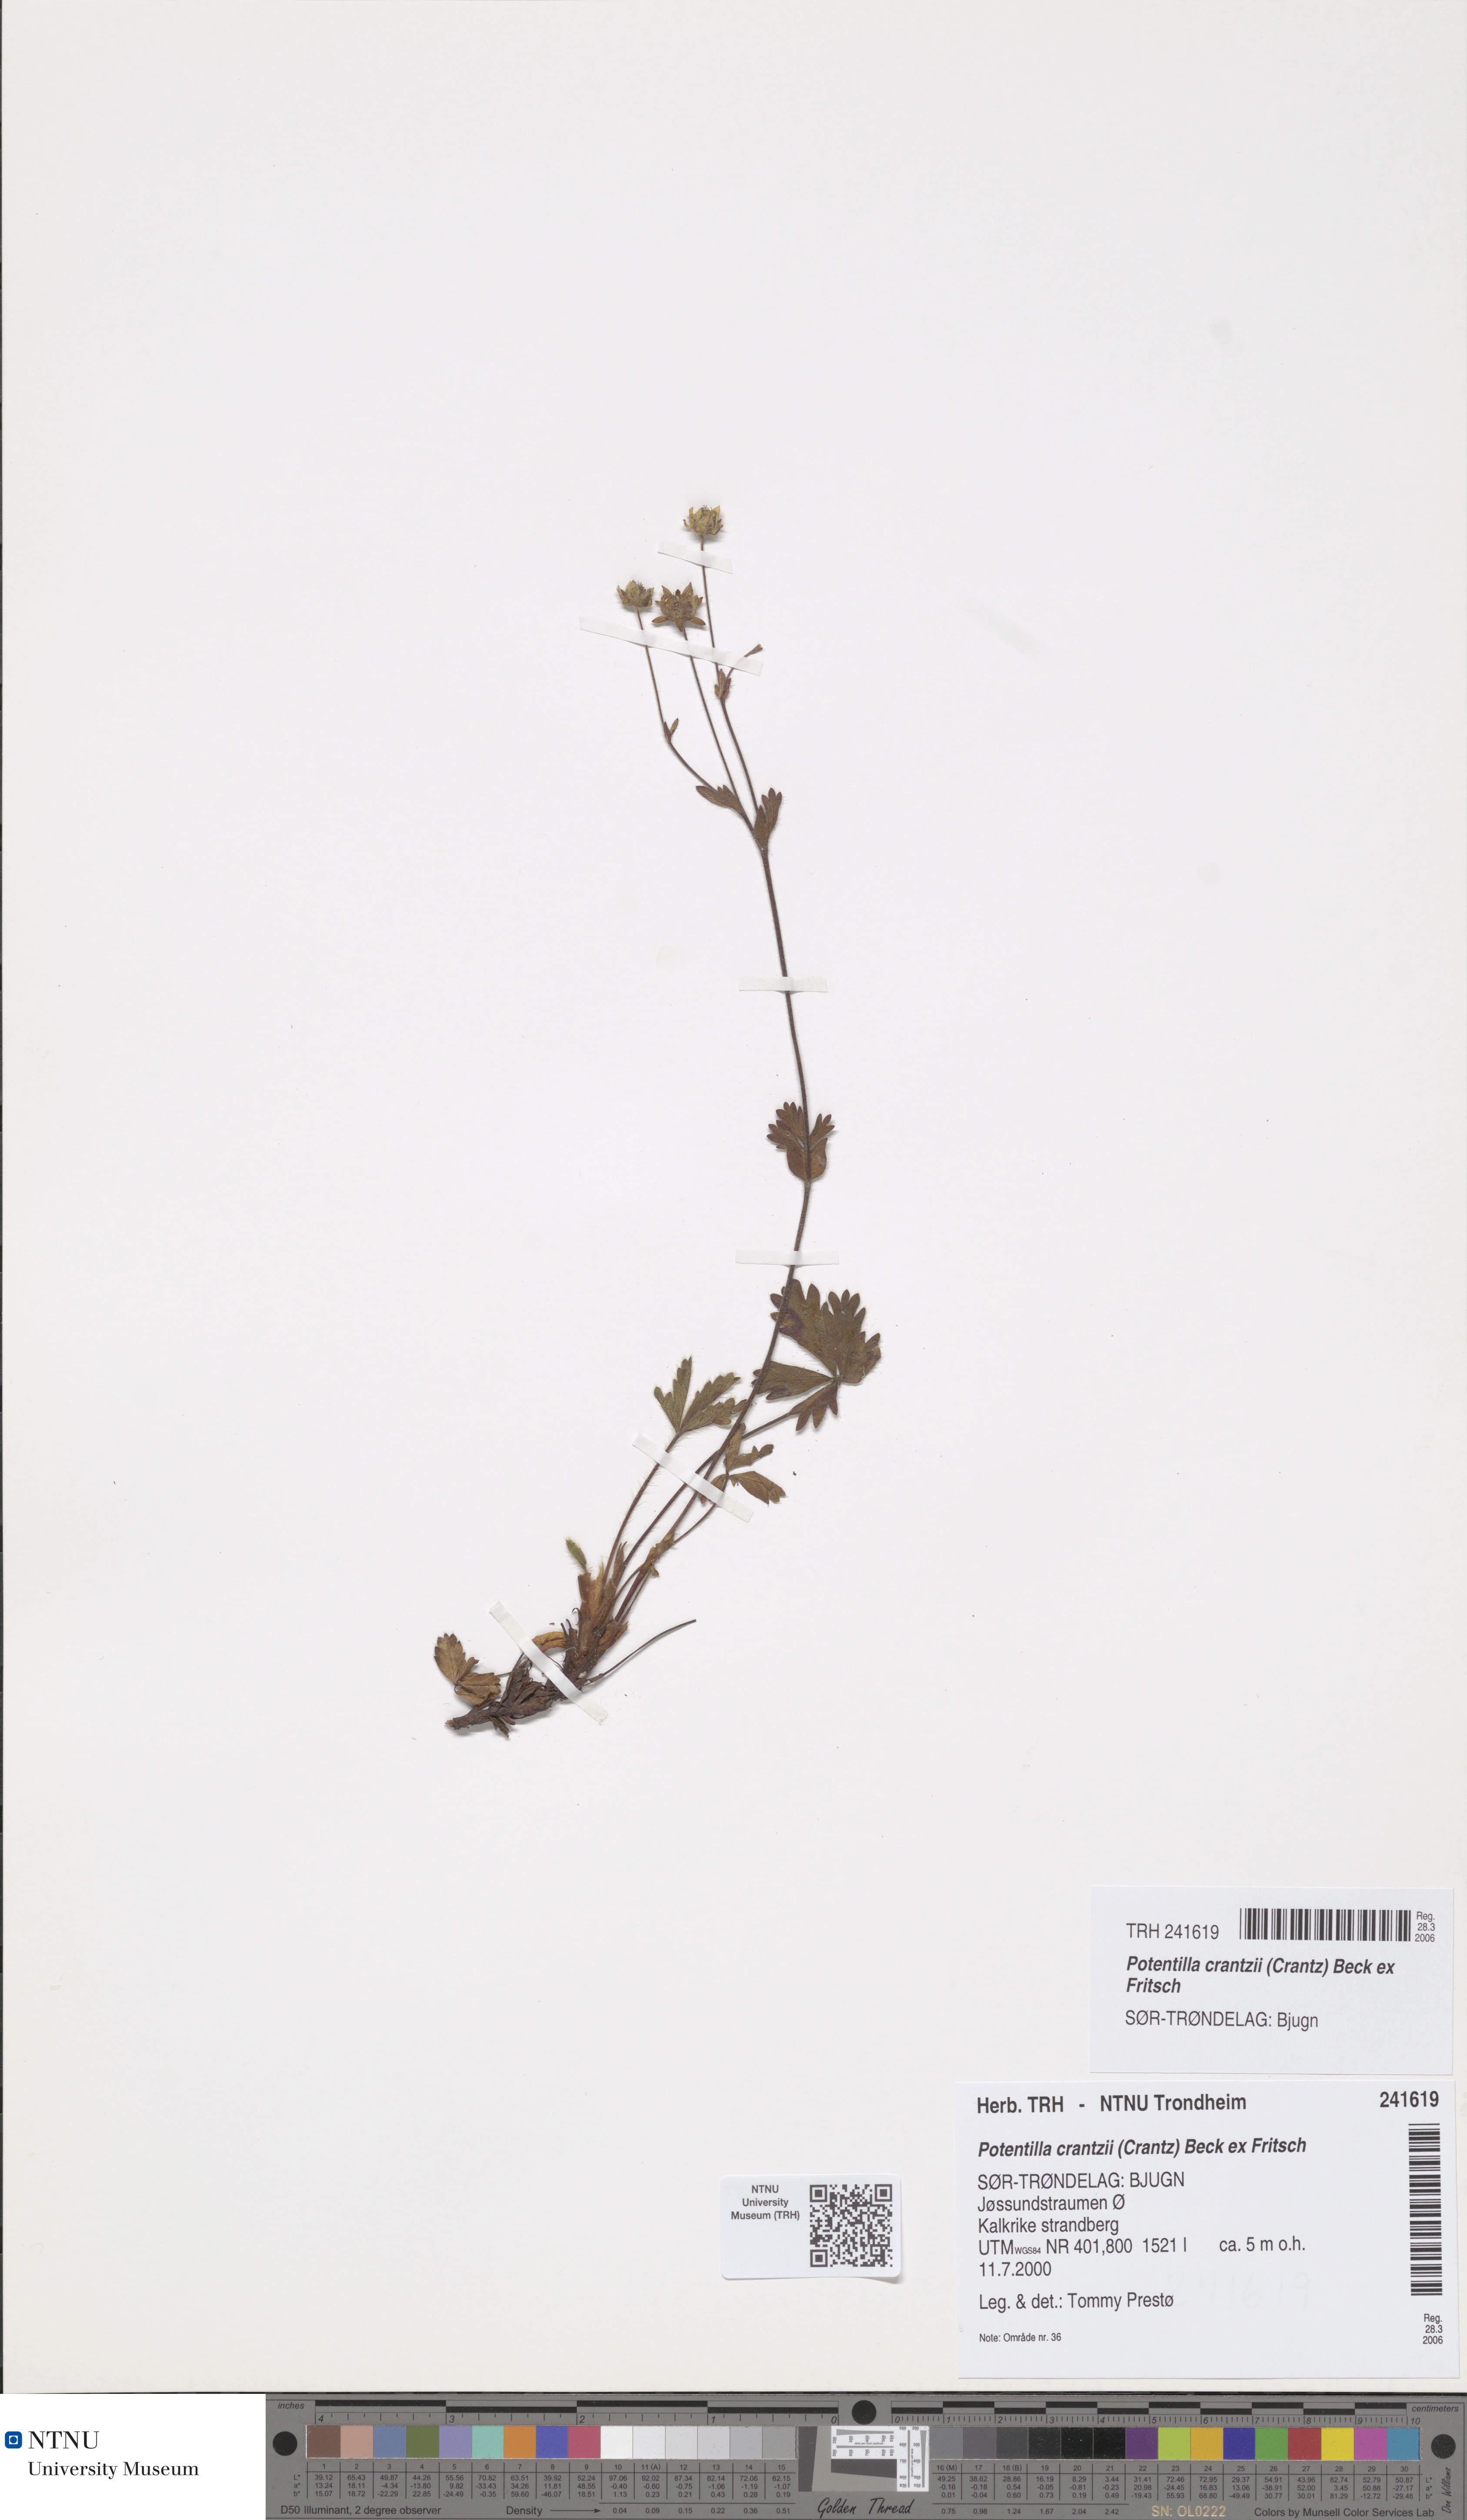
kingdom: Plantae
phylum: Tracheophyta
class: Magnoliopsida
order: Rosales
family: Rosaceae
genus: Potentilla
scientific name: Potentilla crantzii
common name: Alpine cinquefoil
